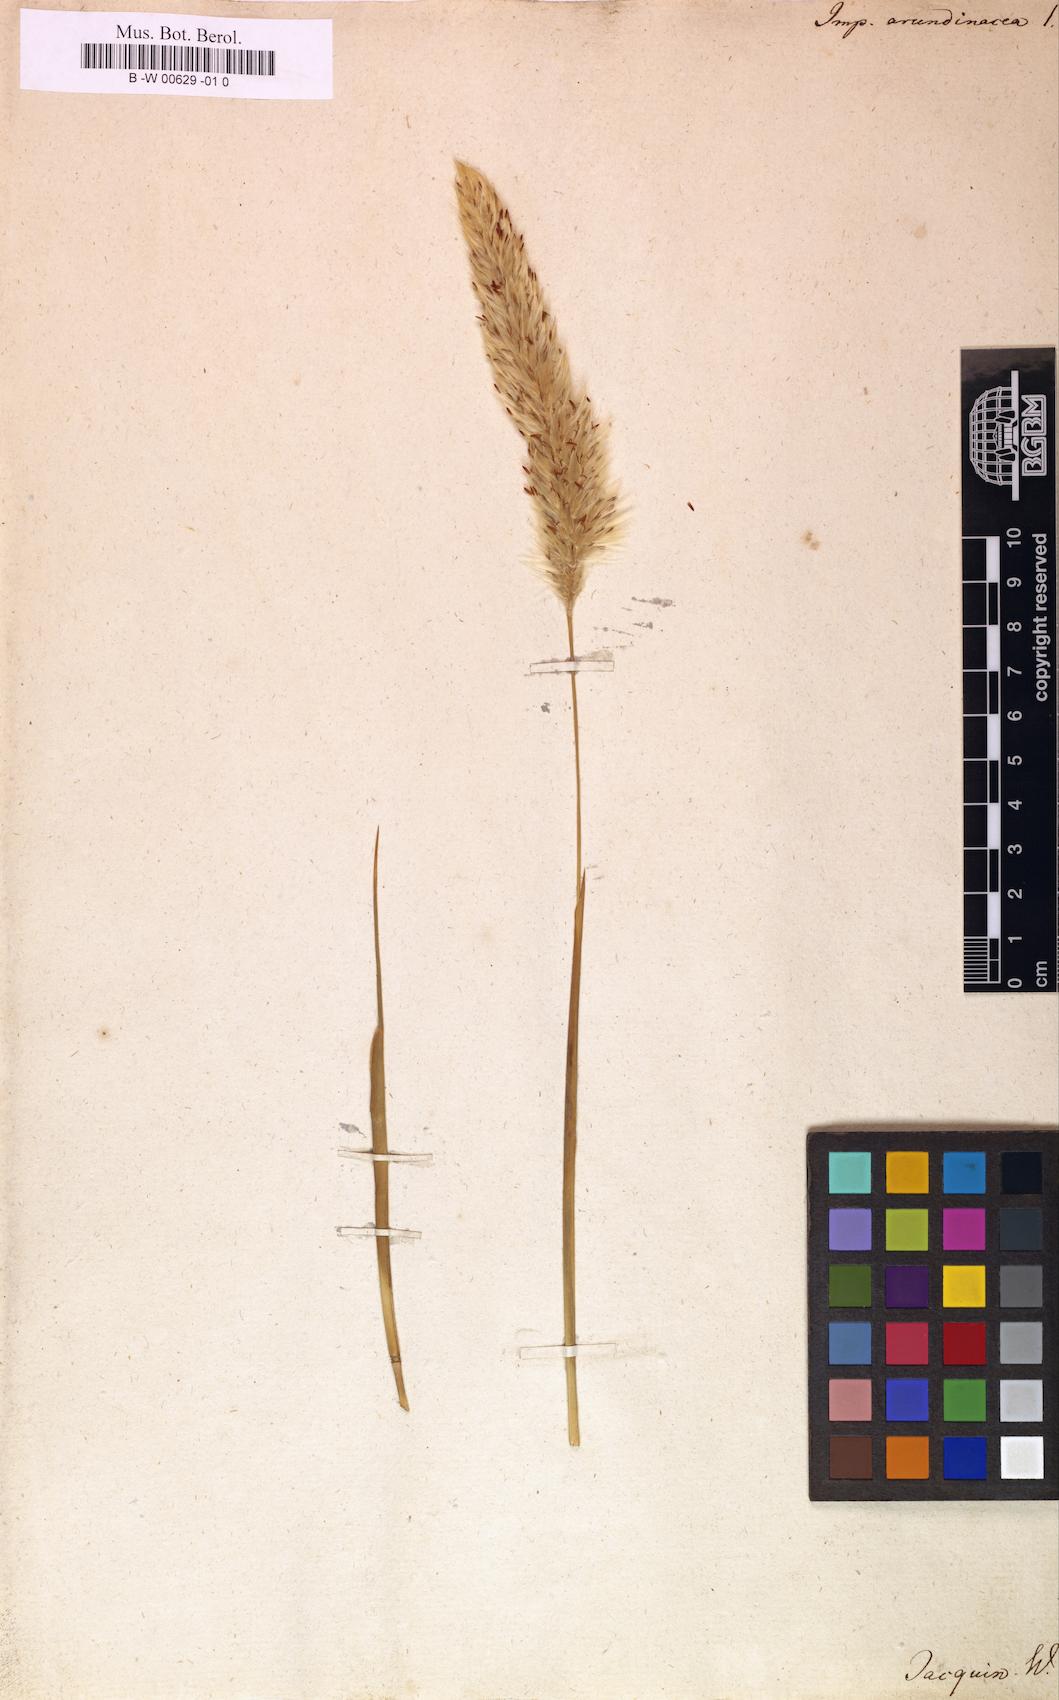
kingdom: Plantae
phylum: Tracheophyta
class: Liliopsida
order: Poales
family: Poaceae
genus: Imperata
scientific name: Imperata cylindrica
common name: Cogongrass
